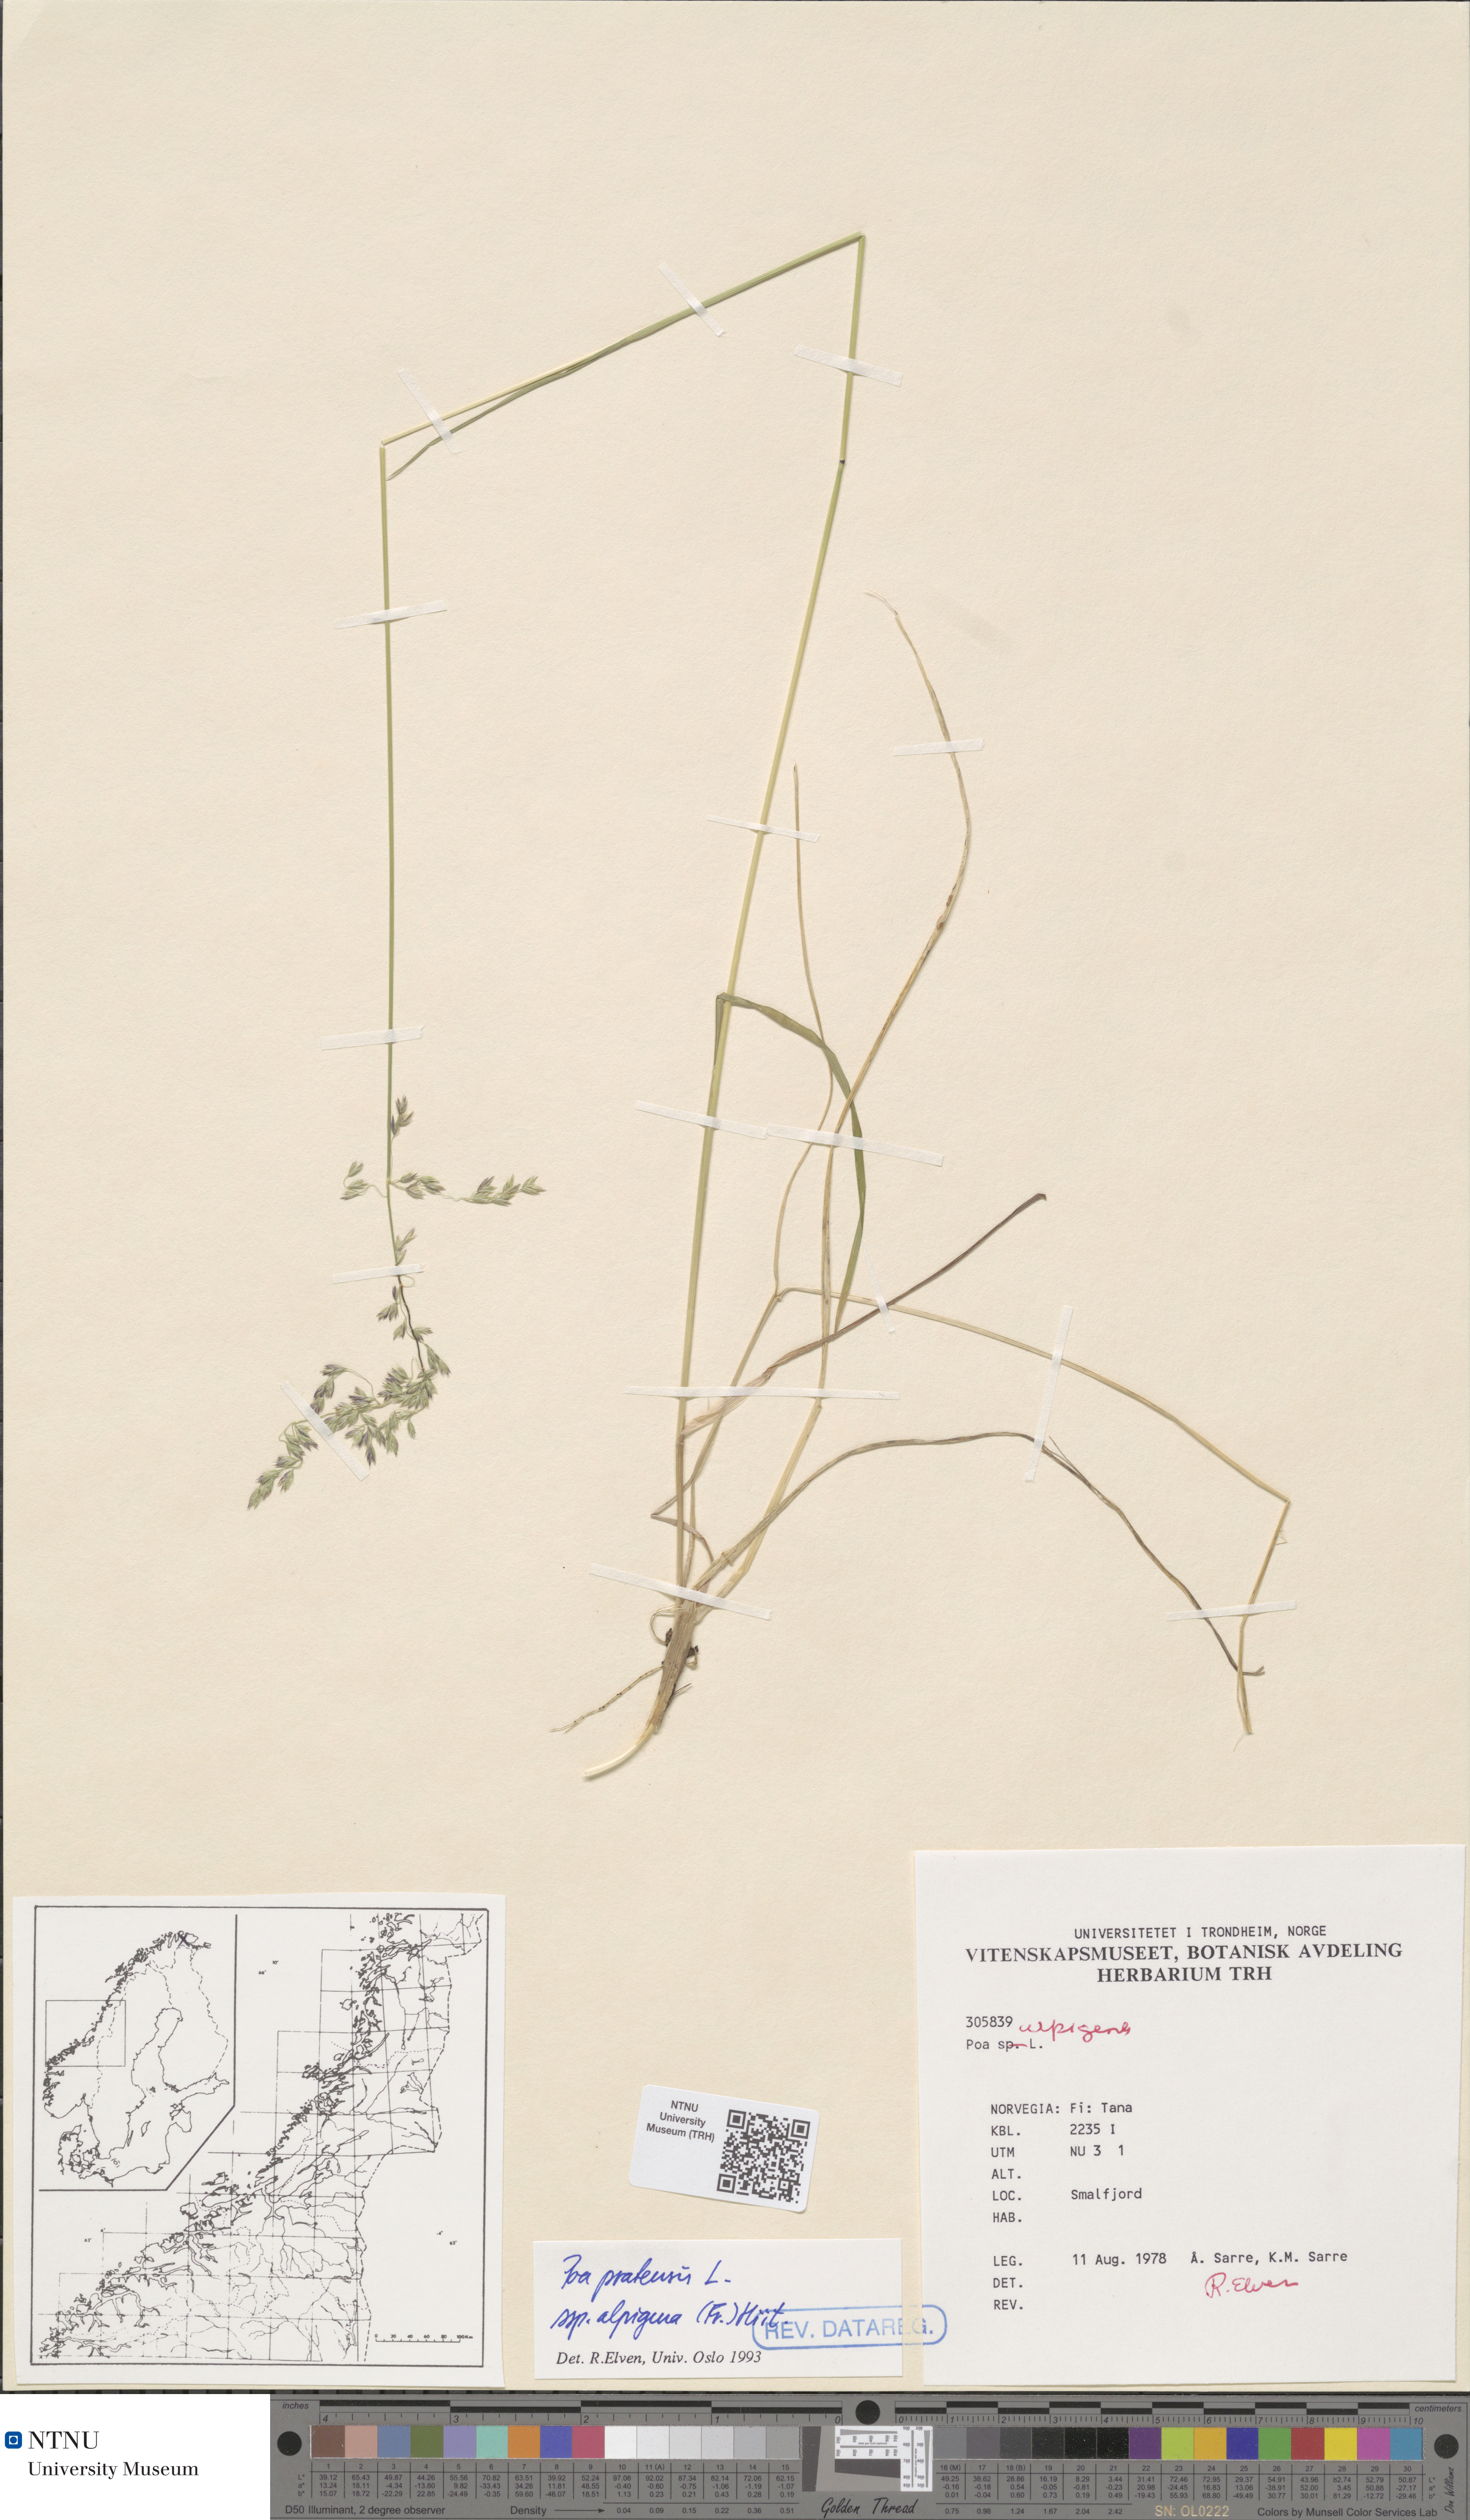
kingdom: Plantae
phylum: Tracheophyta
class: Liliopsida
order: Poales
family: Poaceae
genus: Poa
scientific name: Poa alpigena
